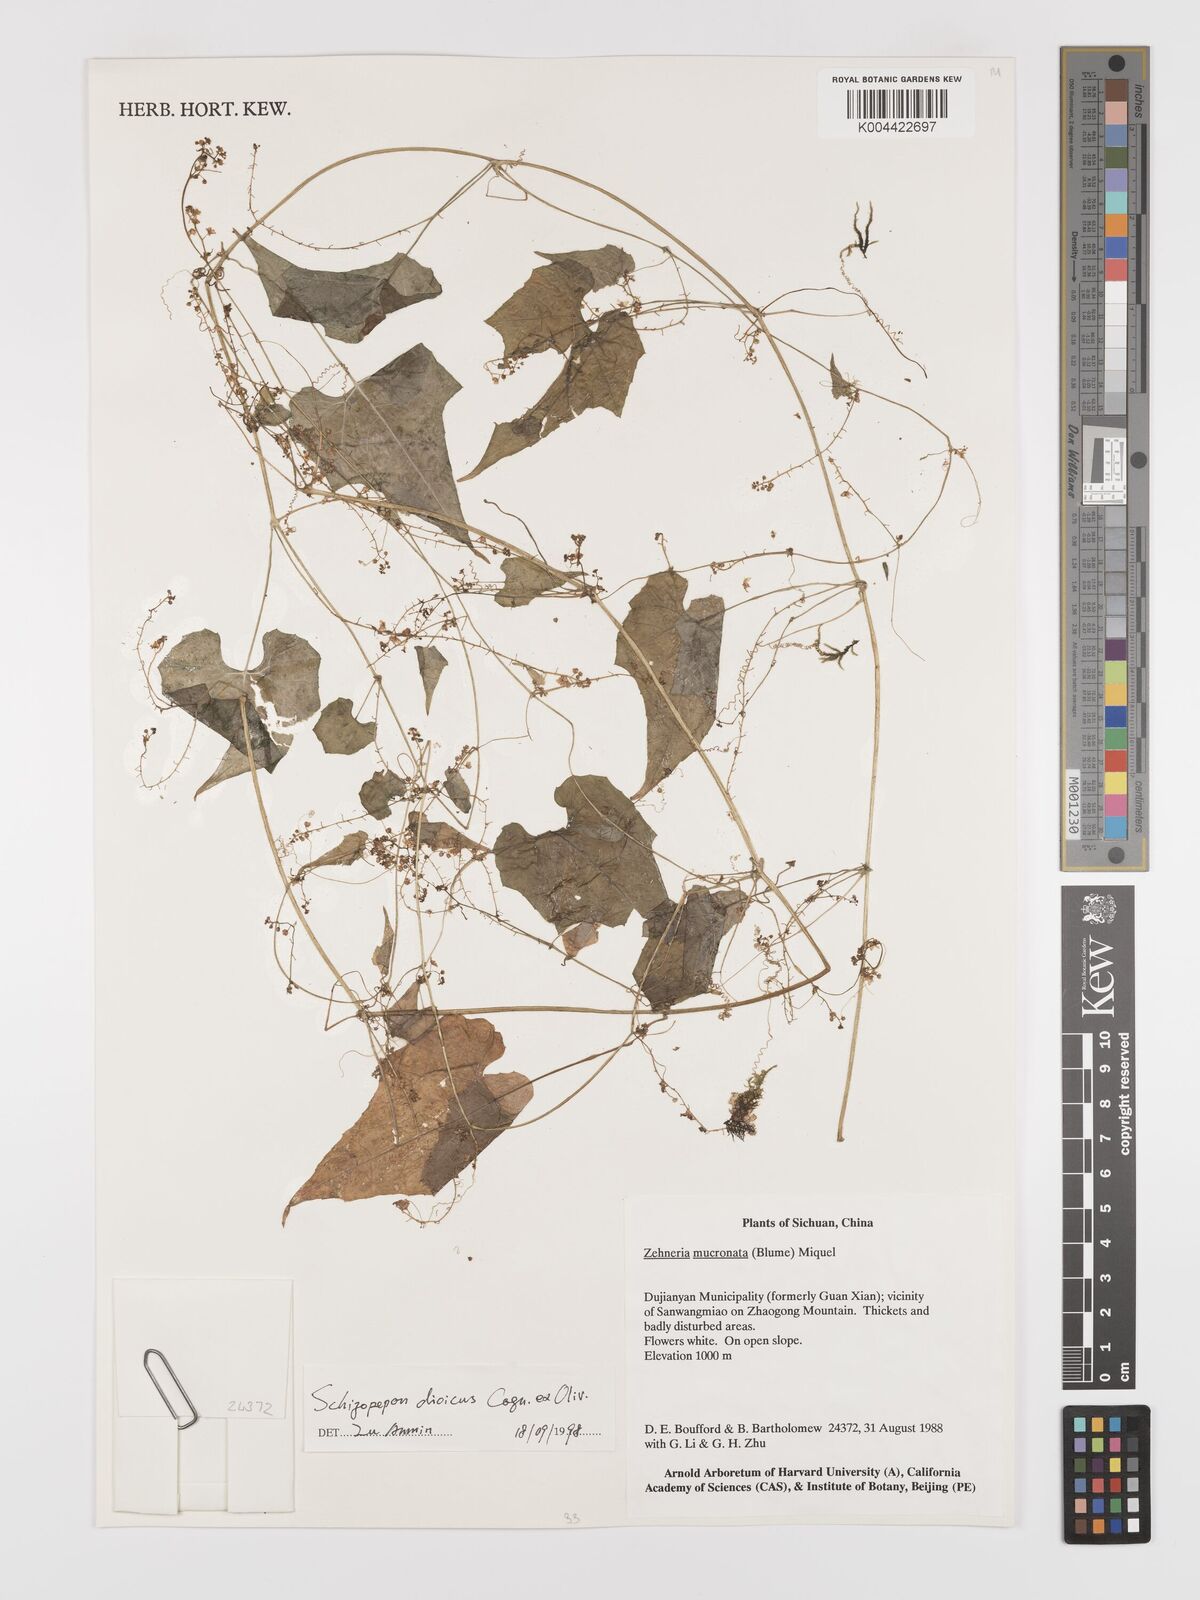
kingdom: Plantae
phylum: Tracheophyta
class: Magnoliopsida
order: Cucurbitales
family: Cucurbitaceae
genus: Schizopepon
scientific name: Schizopepon
